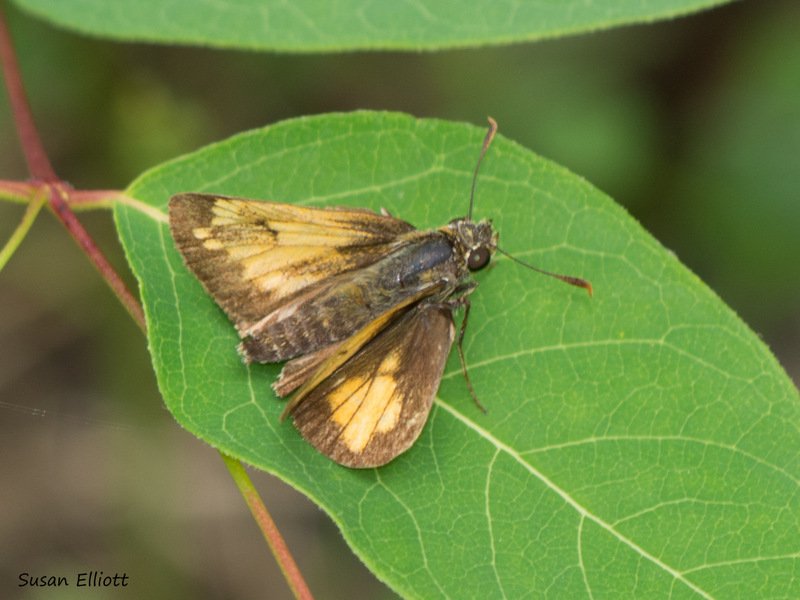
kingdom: Animalia
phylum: Arthropoda
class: Insecta
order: Lepidoptera
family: Hesperiidae
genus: Lon
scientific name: Lon hobomok
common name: Hobomok Skipper
